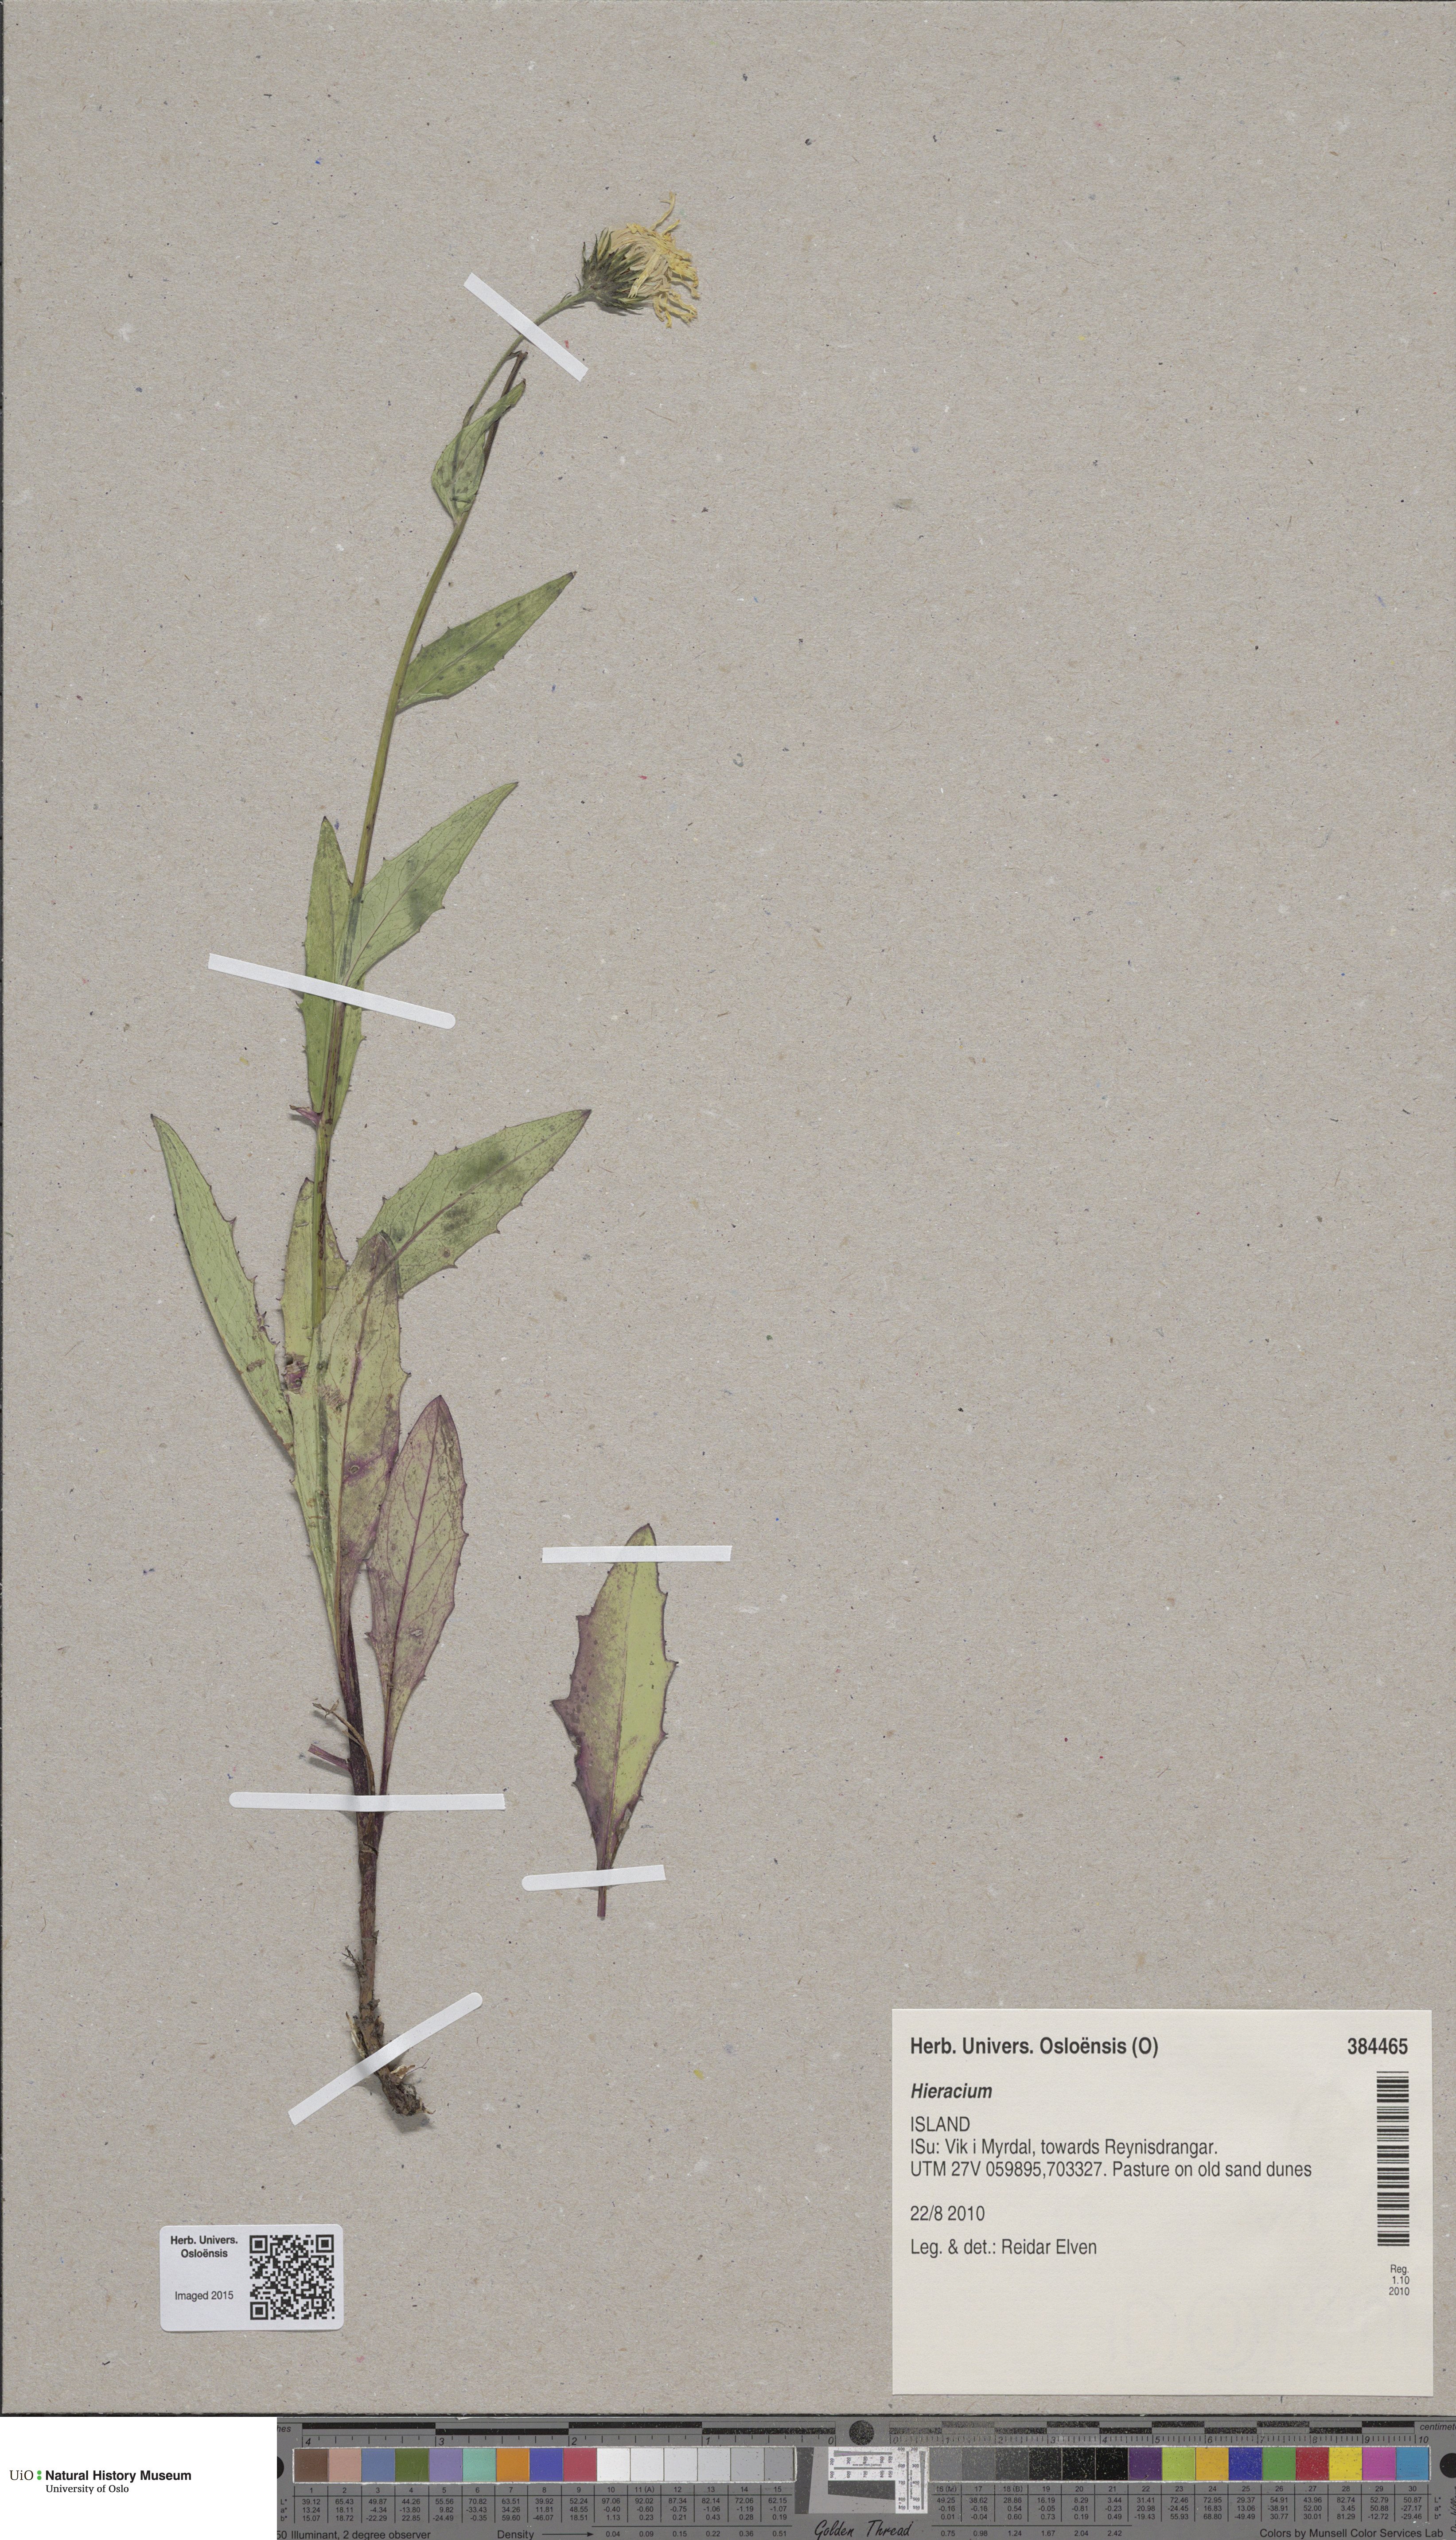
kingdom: Plantae
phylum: Tracheophyta
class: Magnoliopsida
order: Asterales
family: Asteraceae
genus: Hieracium
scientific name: Hieracium
